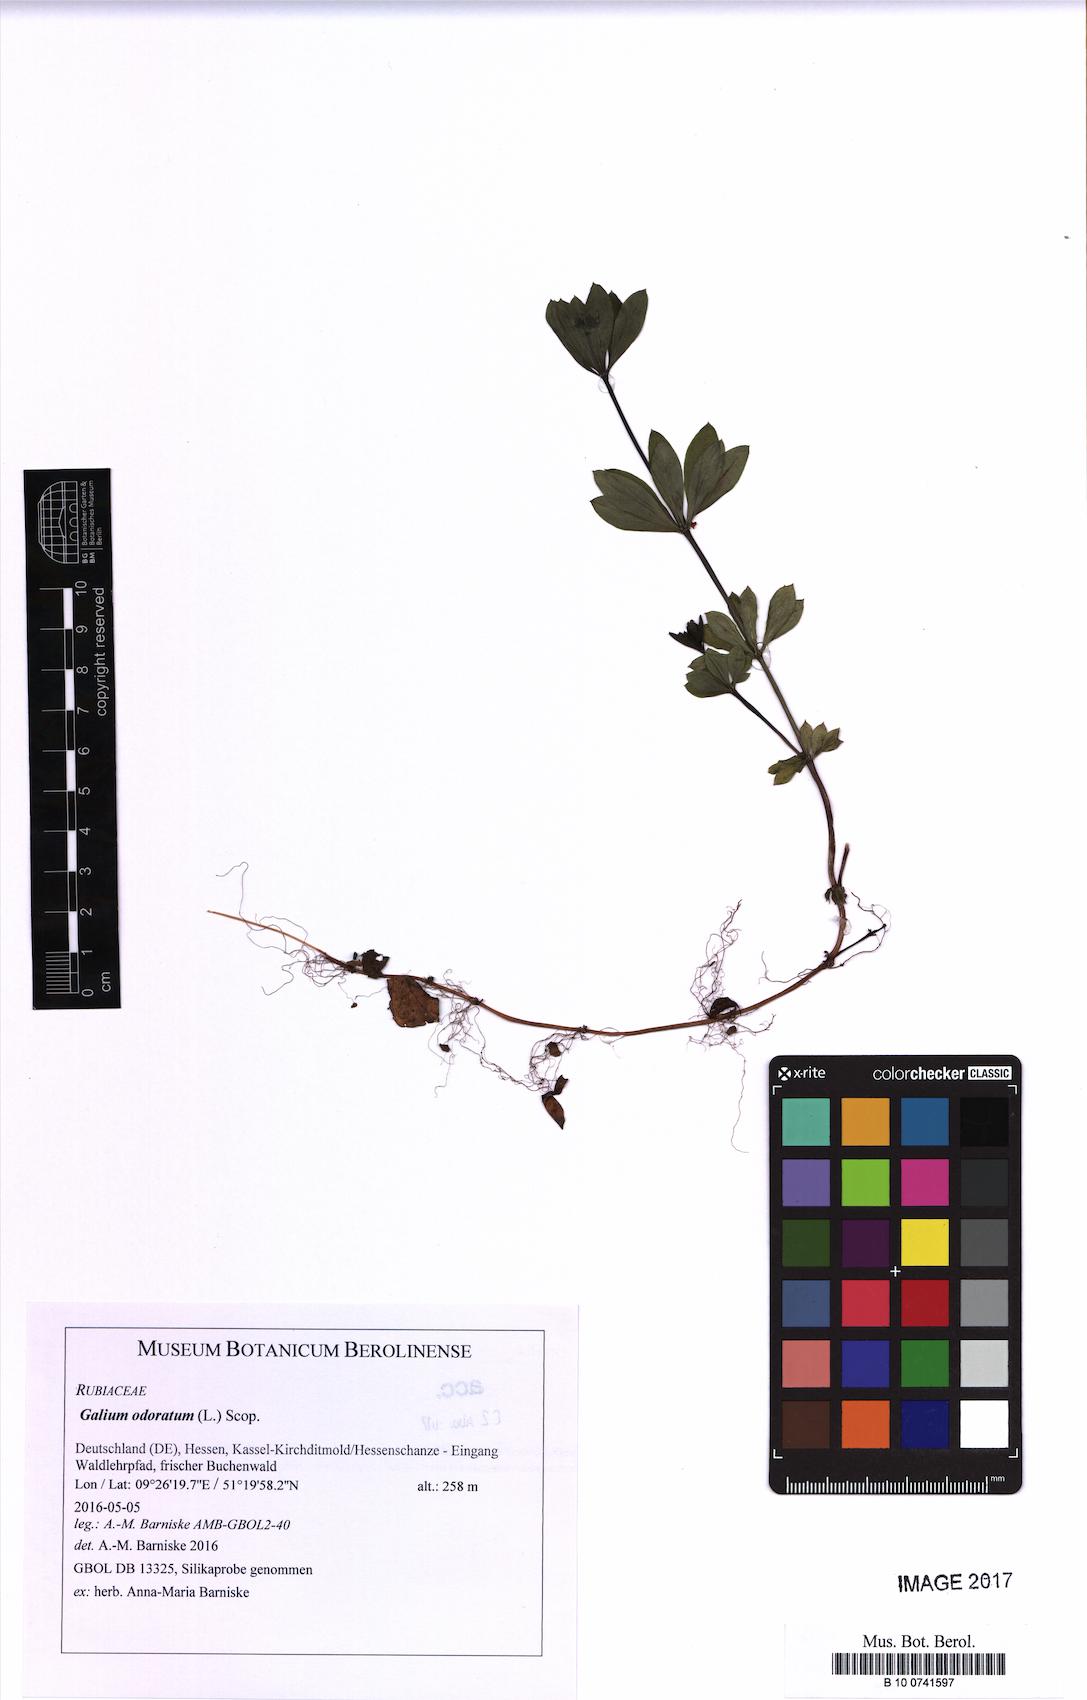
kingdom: Plantae
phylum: Tracheophyta
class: Magnoliopsida
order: Gentianales
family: Rubiaceae
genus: Galium
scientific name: Galium odoratum
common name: Sweet woodruff
